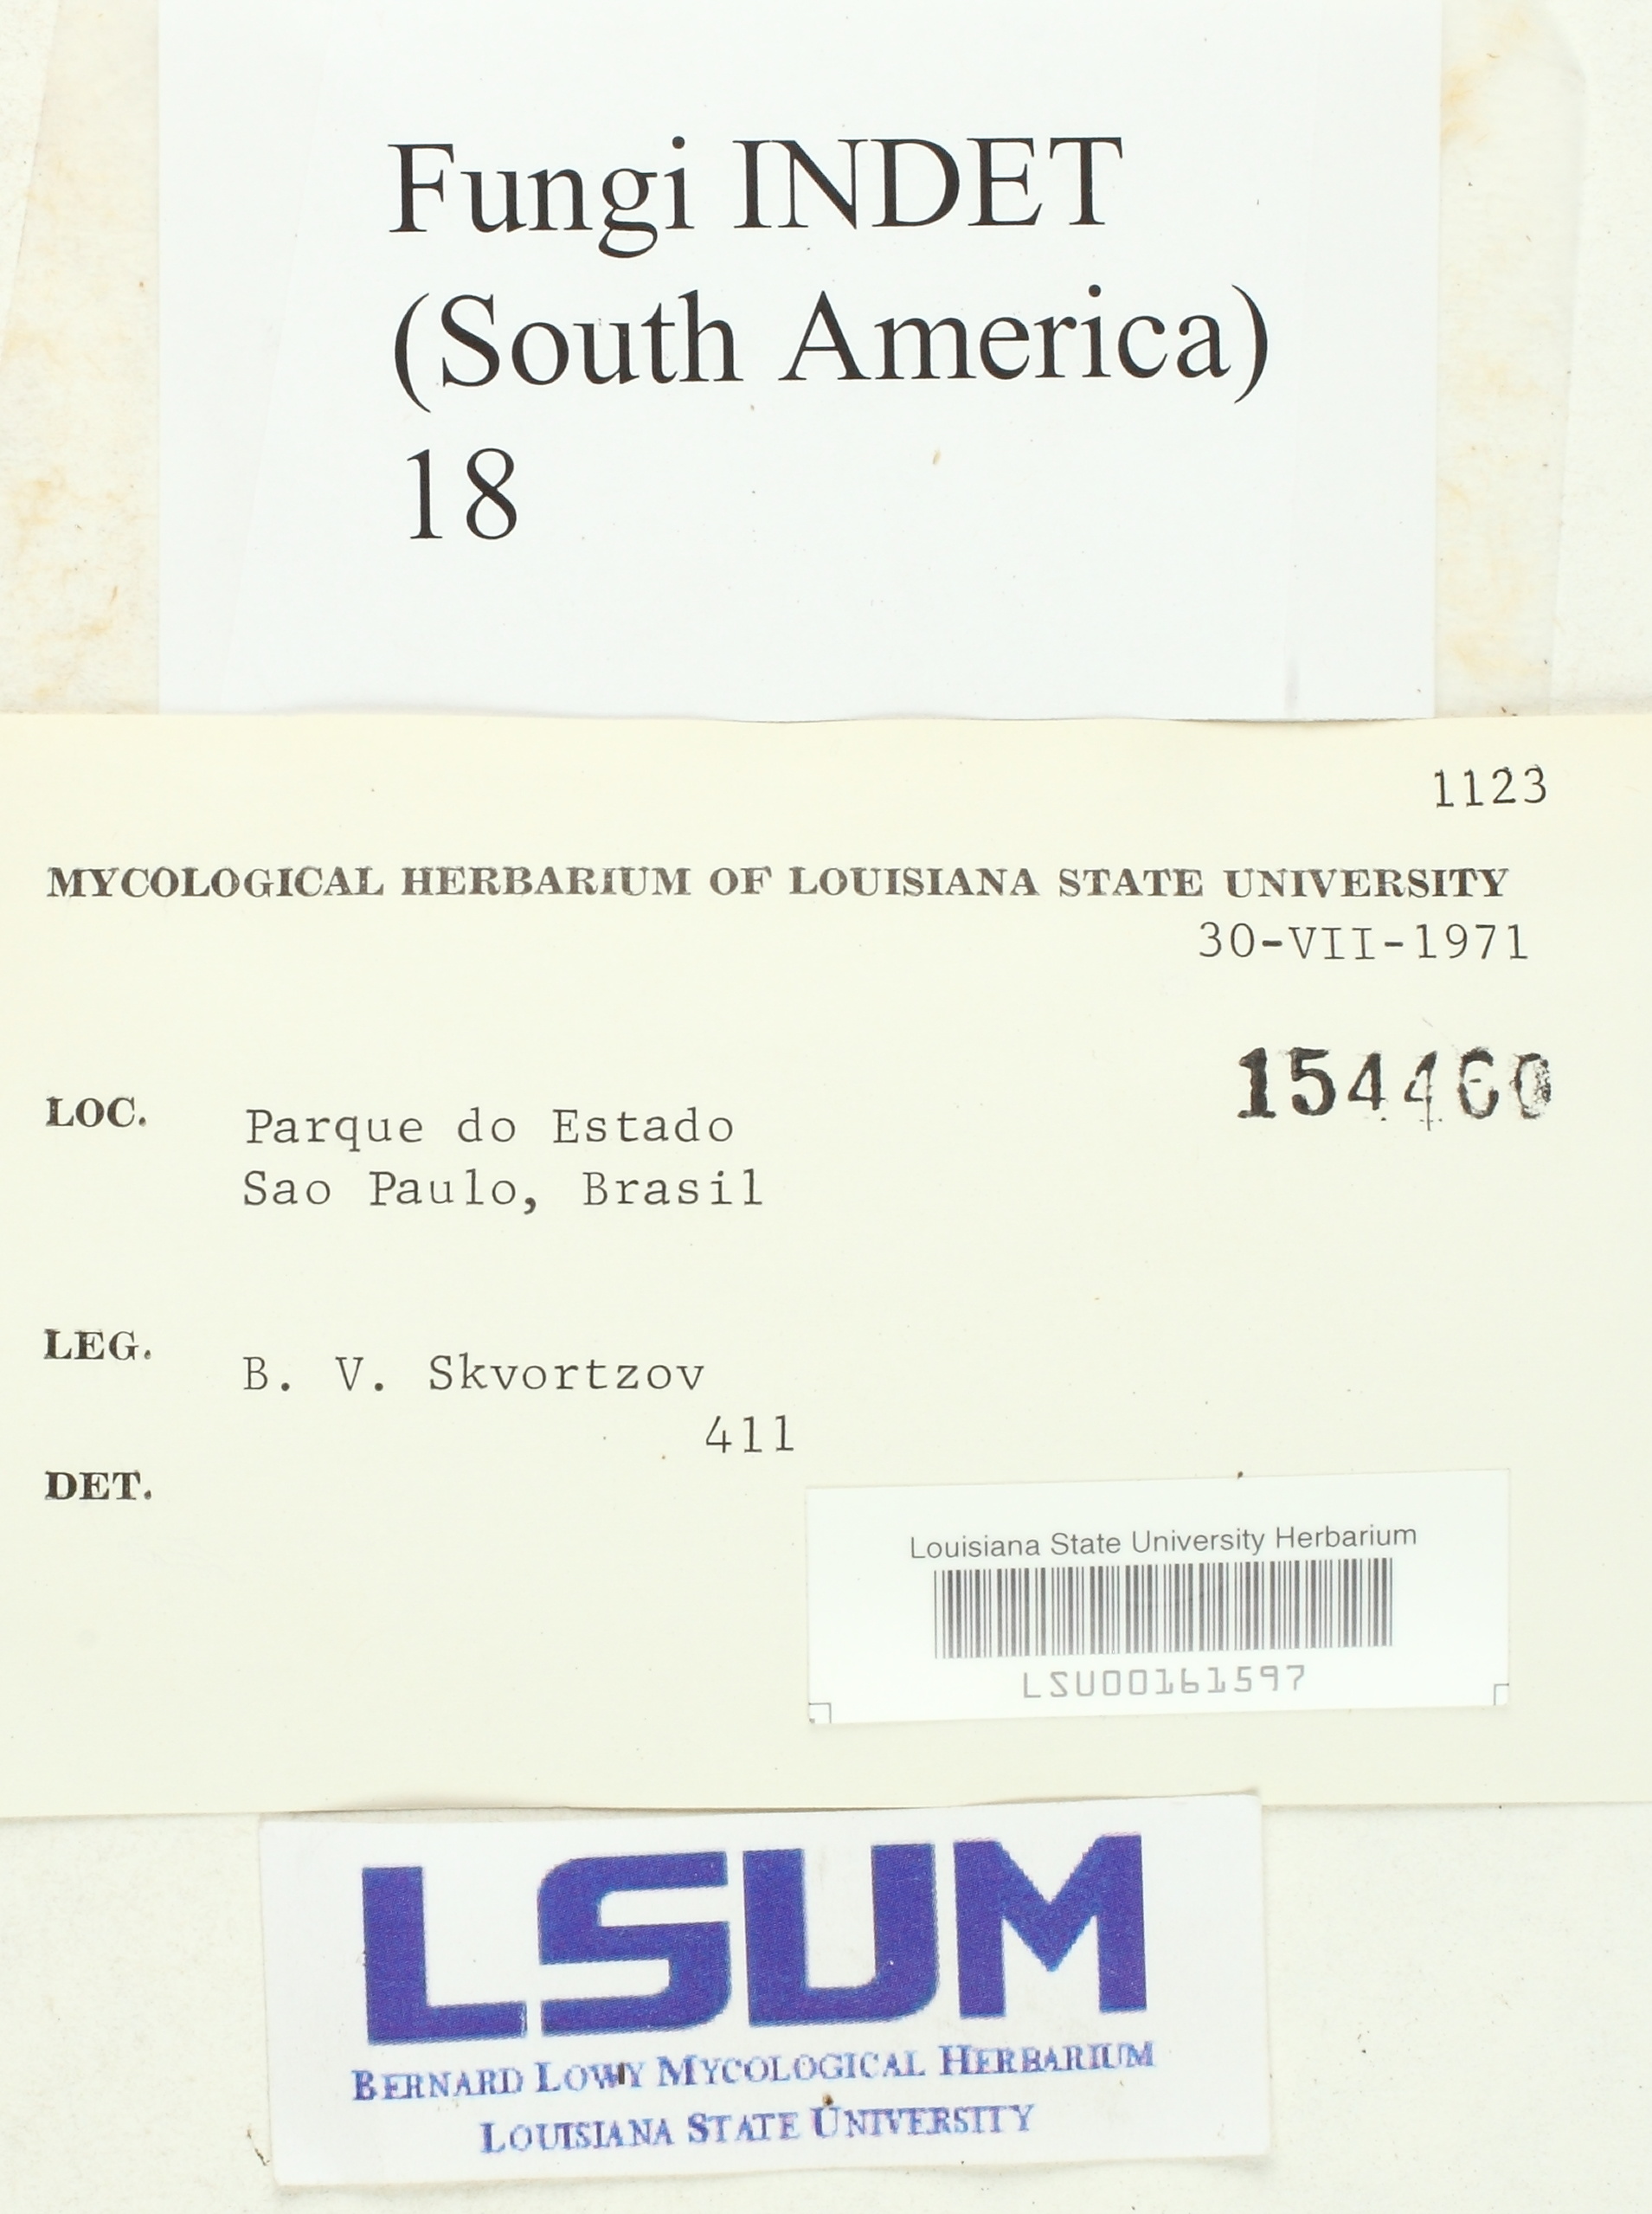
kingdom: Fungi
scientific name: Fungi
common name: Fungi
